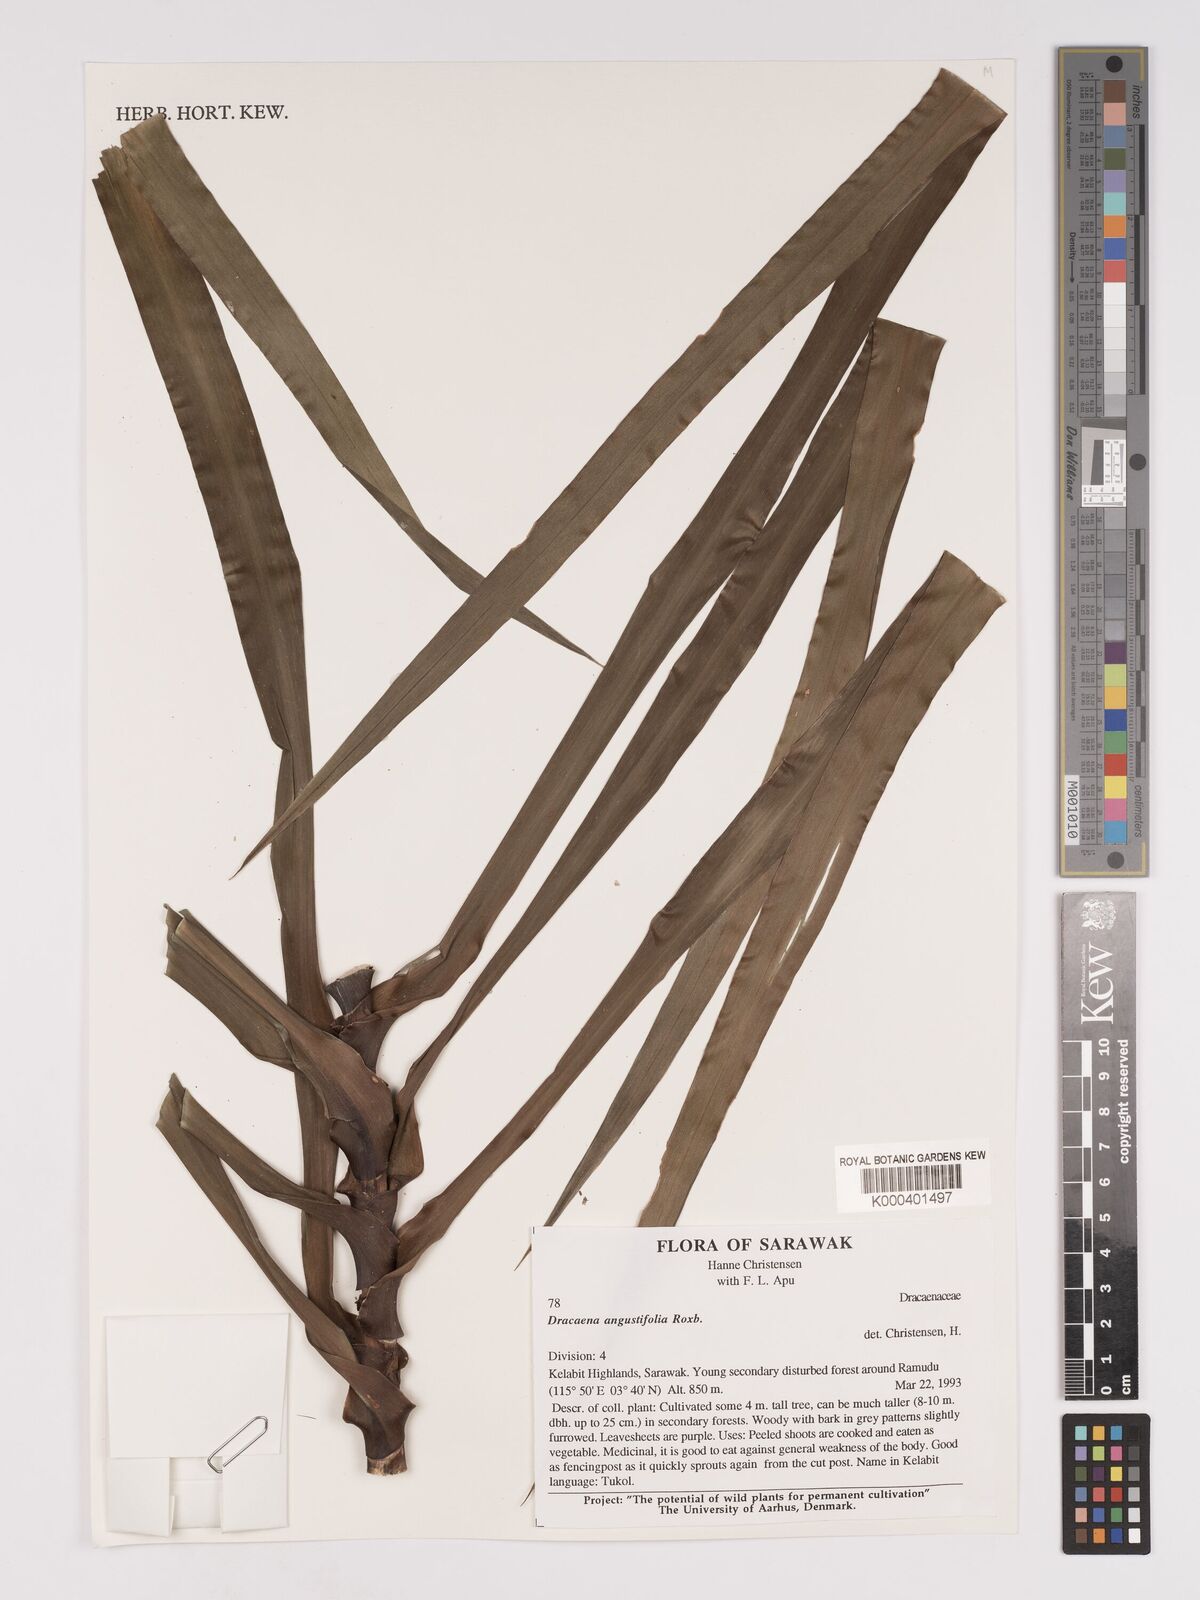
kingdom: Plantae
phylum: Tracheophyta
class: Liliopsida
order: Asparagales
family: Asparagaceae
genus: Dracaena
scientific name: Dracaena angustifolia
